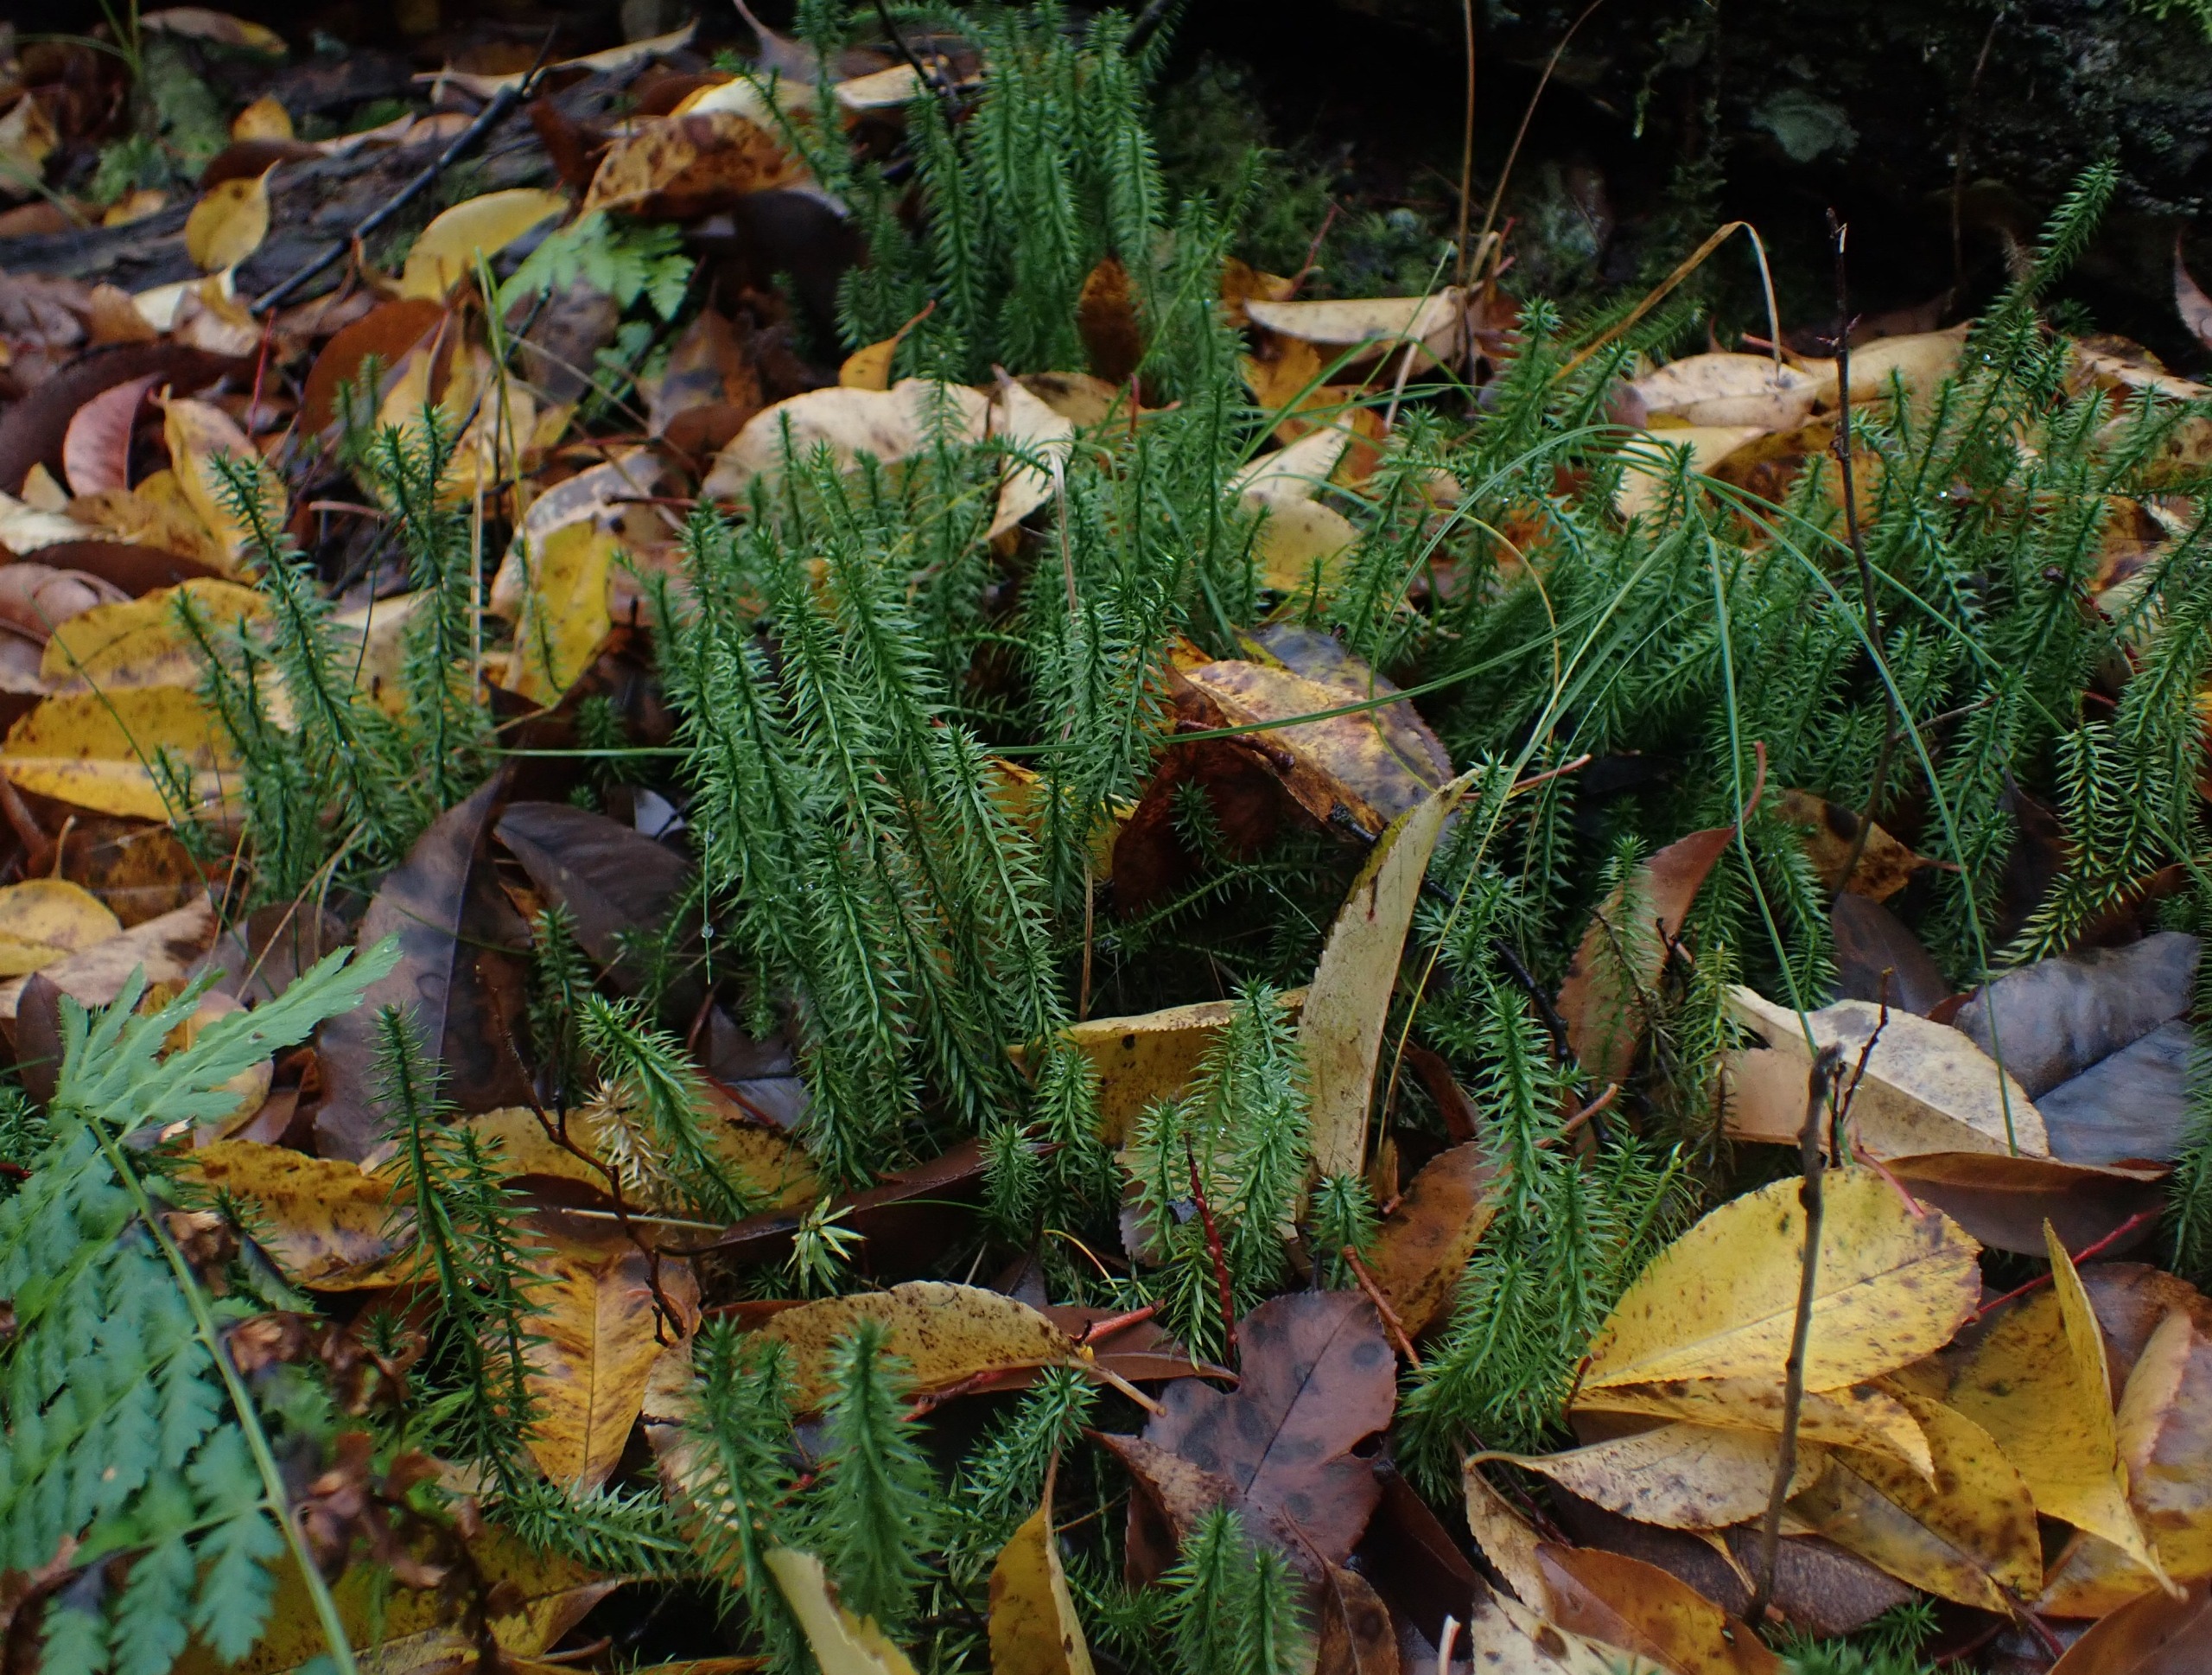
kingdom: Plantae
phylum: Tracheophyta
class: Lycopodiopsida
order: Lycopodiales
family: Lycopodiaceae
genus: Spinulum
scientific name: Spinulum annotinum
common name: Femradet ulvefod
